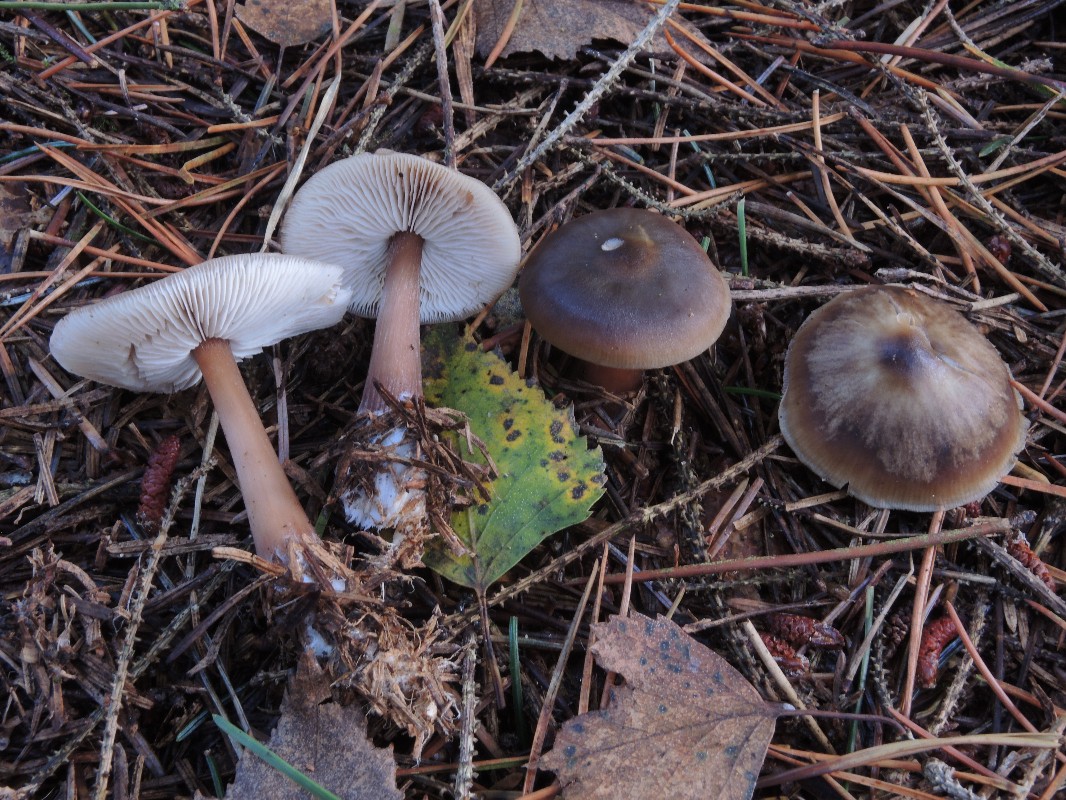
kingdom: Fungi
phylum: Basidiomycota
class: Agaricomycetes
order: Agaricales
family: Omphalotaceae
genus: Rhodocollybia
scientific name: Rhodocollybia butyracea
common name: keglestokket fladhat
